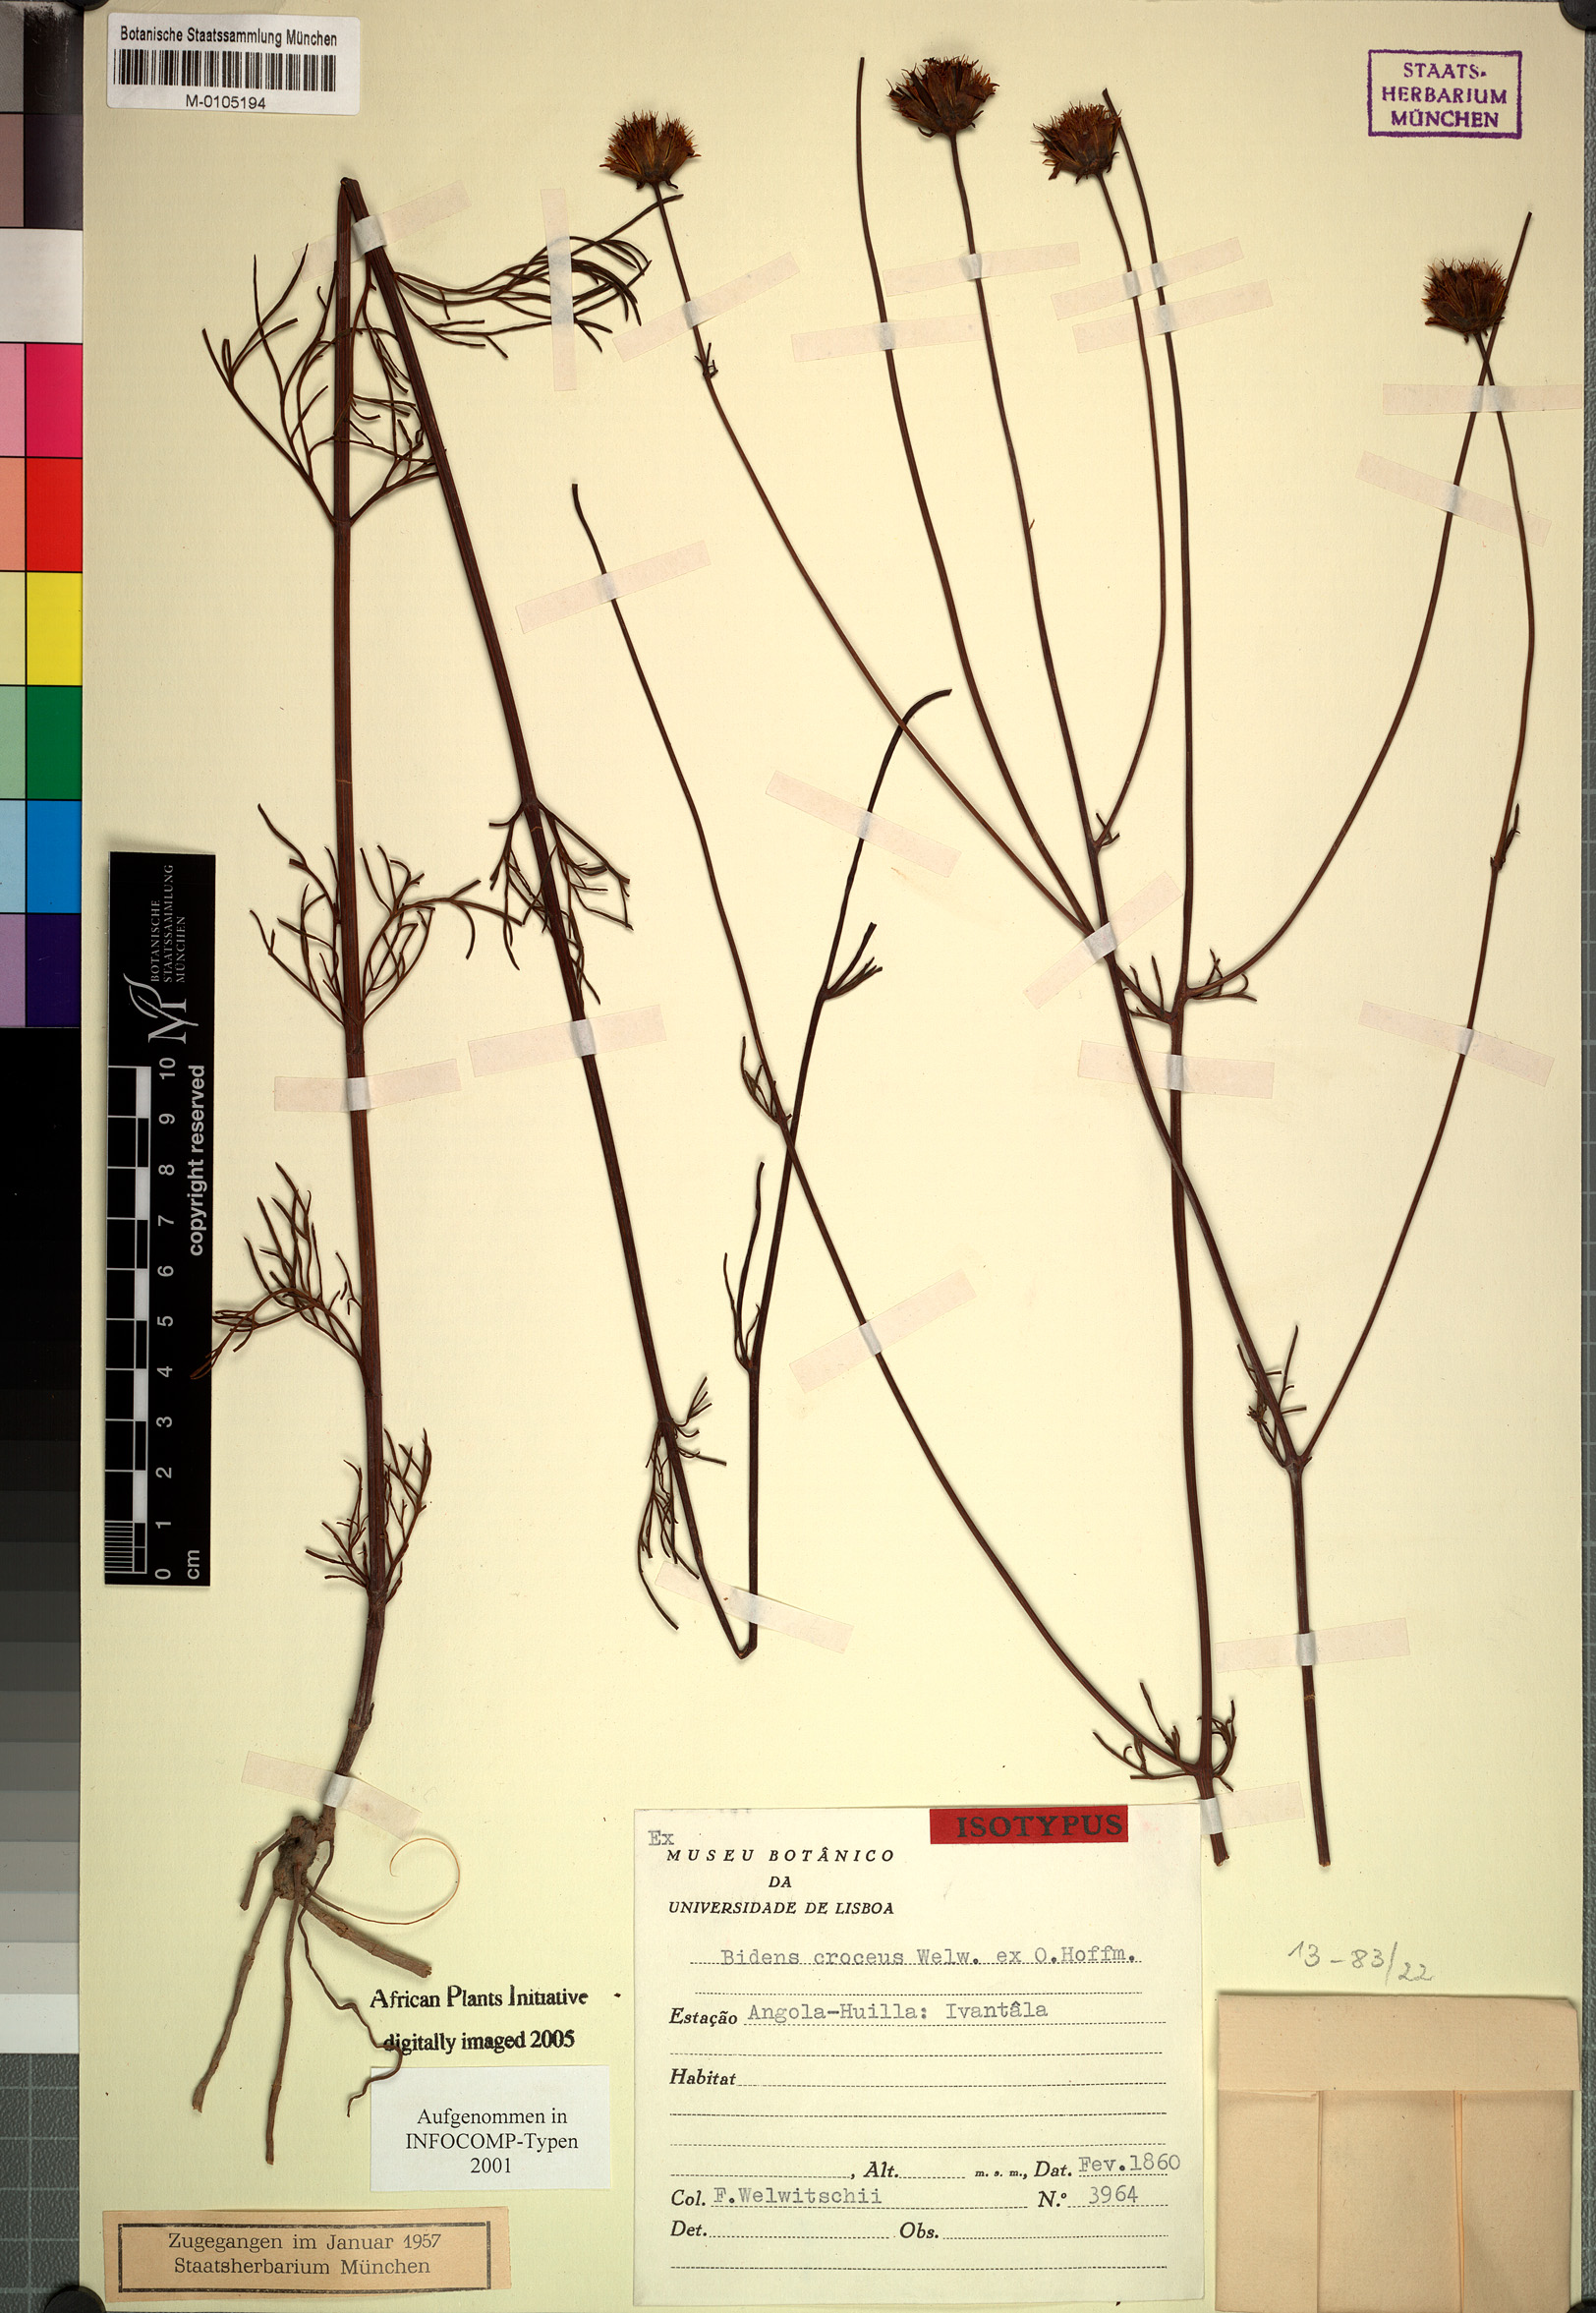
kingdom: Plantae
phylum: Tracheophyta
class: Magnoliopsida
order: Asterales
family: Asteraceae
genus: Bidens
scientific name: Bidens crocea
